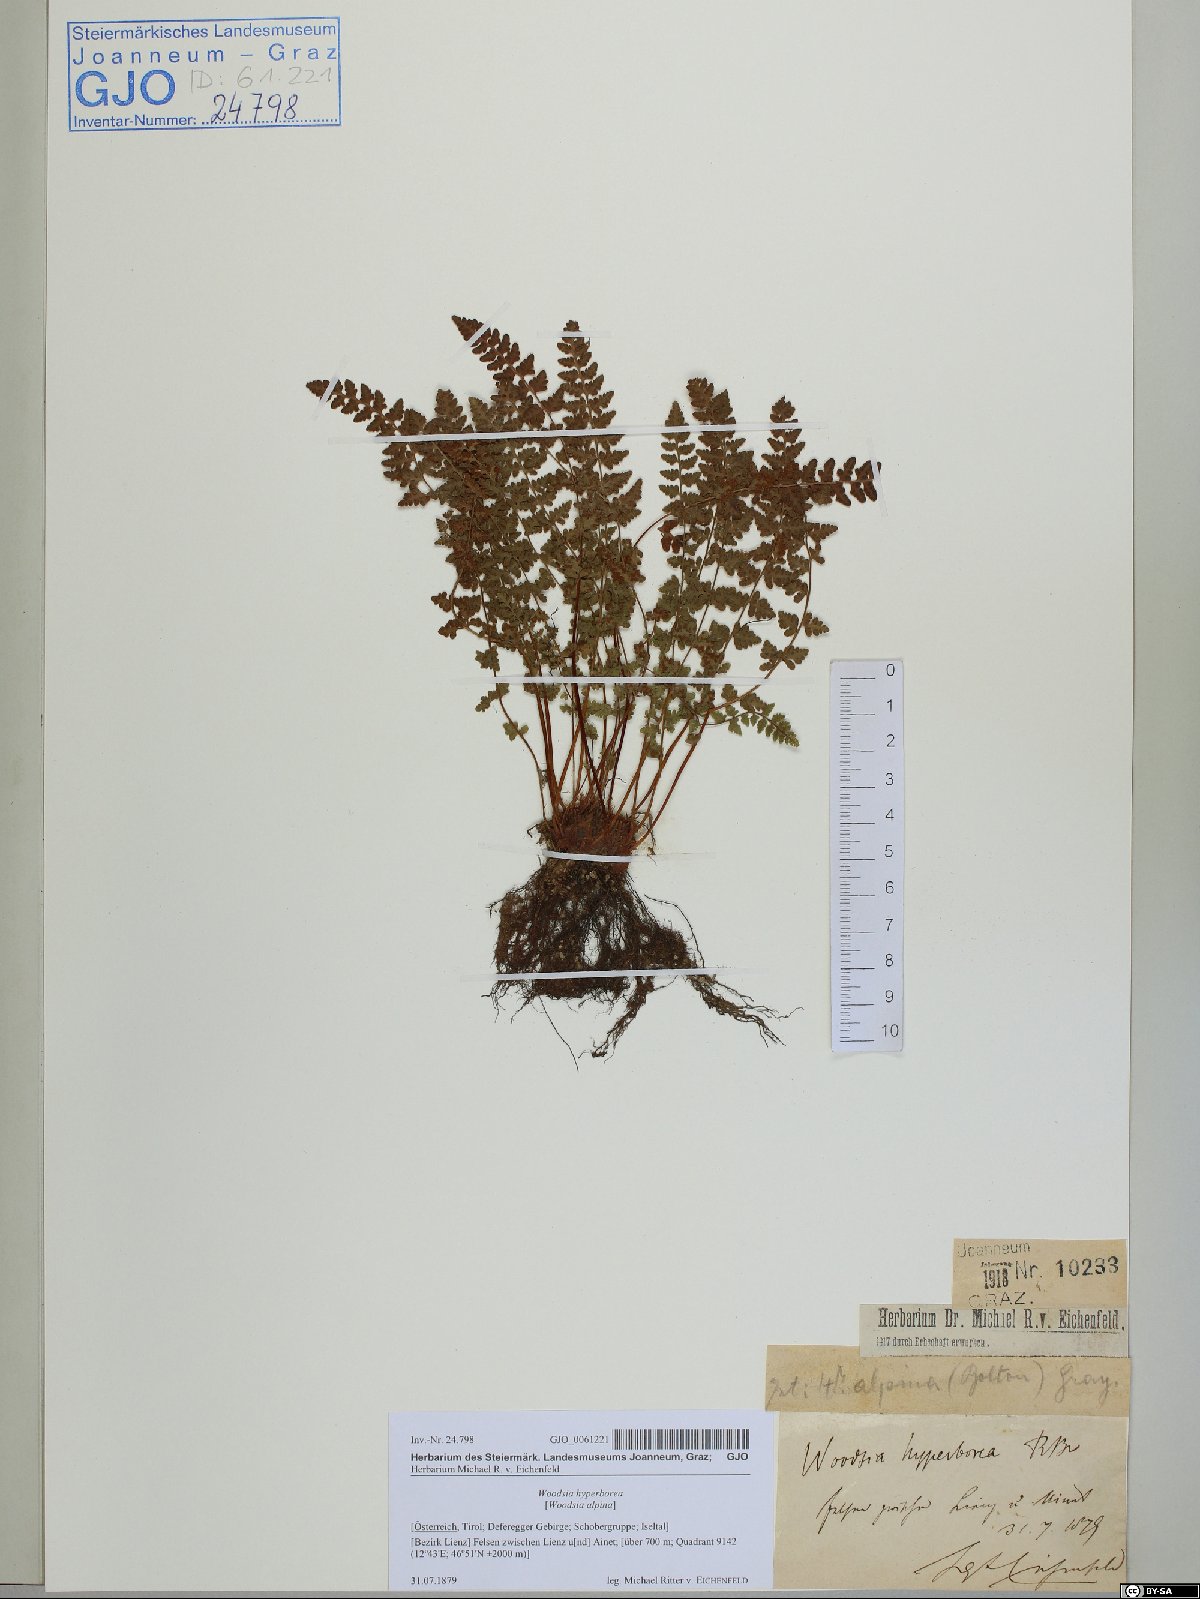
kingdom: Plantae
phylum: Tracheophyta
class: Polypodiopsida
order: Polypodiales
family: Woodsiaceae
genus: Woodsia
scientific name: Woodsia alpina
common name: Alpine woodsia
